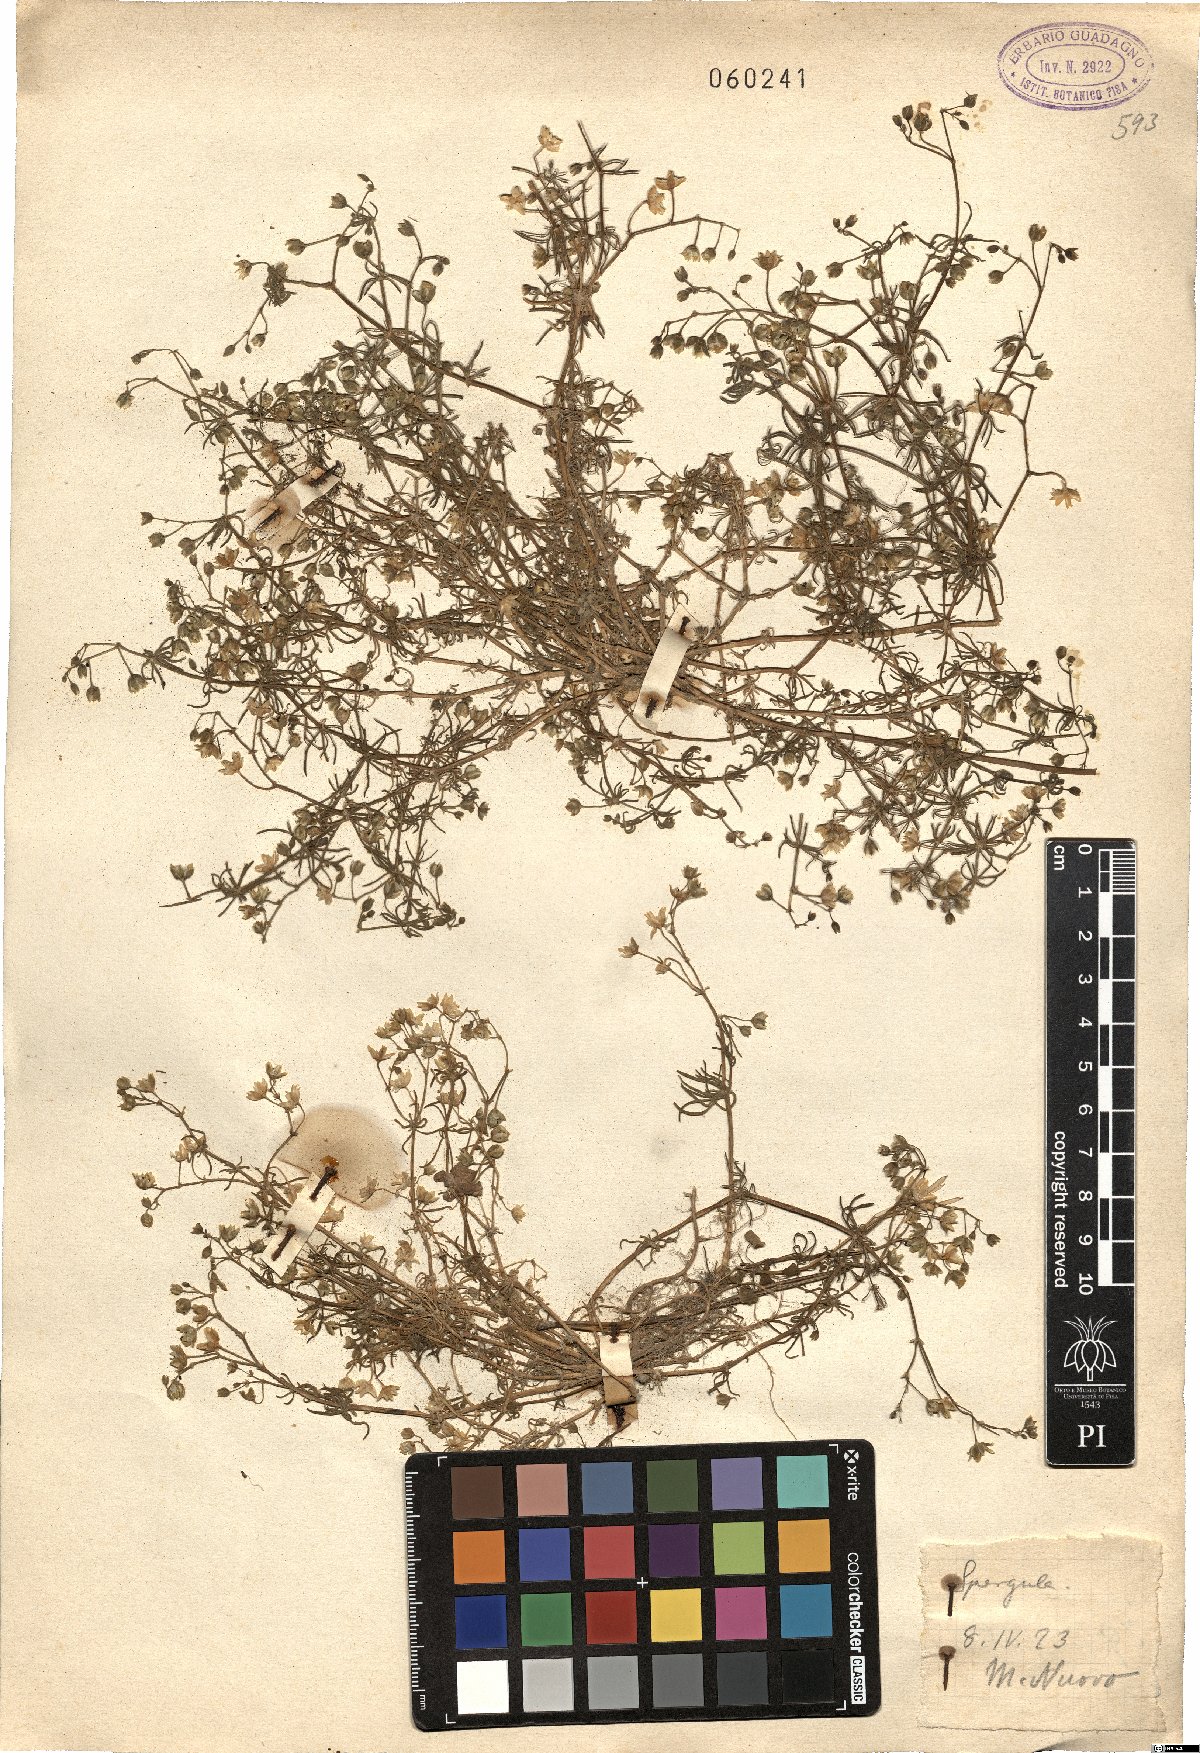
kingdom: Plantae
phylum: Tracheophyta
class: Magnoliopsida
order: Caryophyllales
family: Caryophyllaceae
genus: Spergula
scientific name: Spergula
